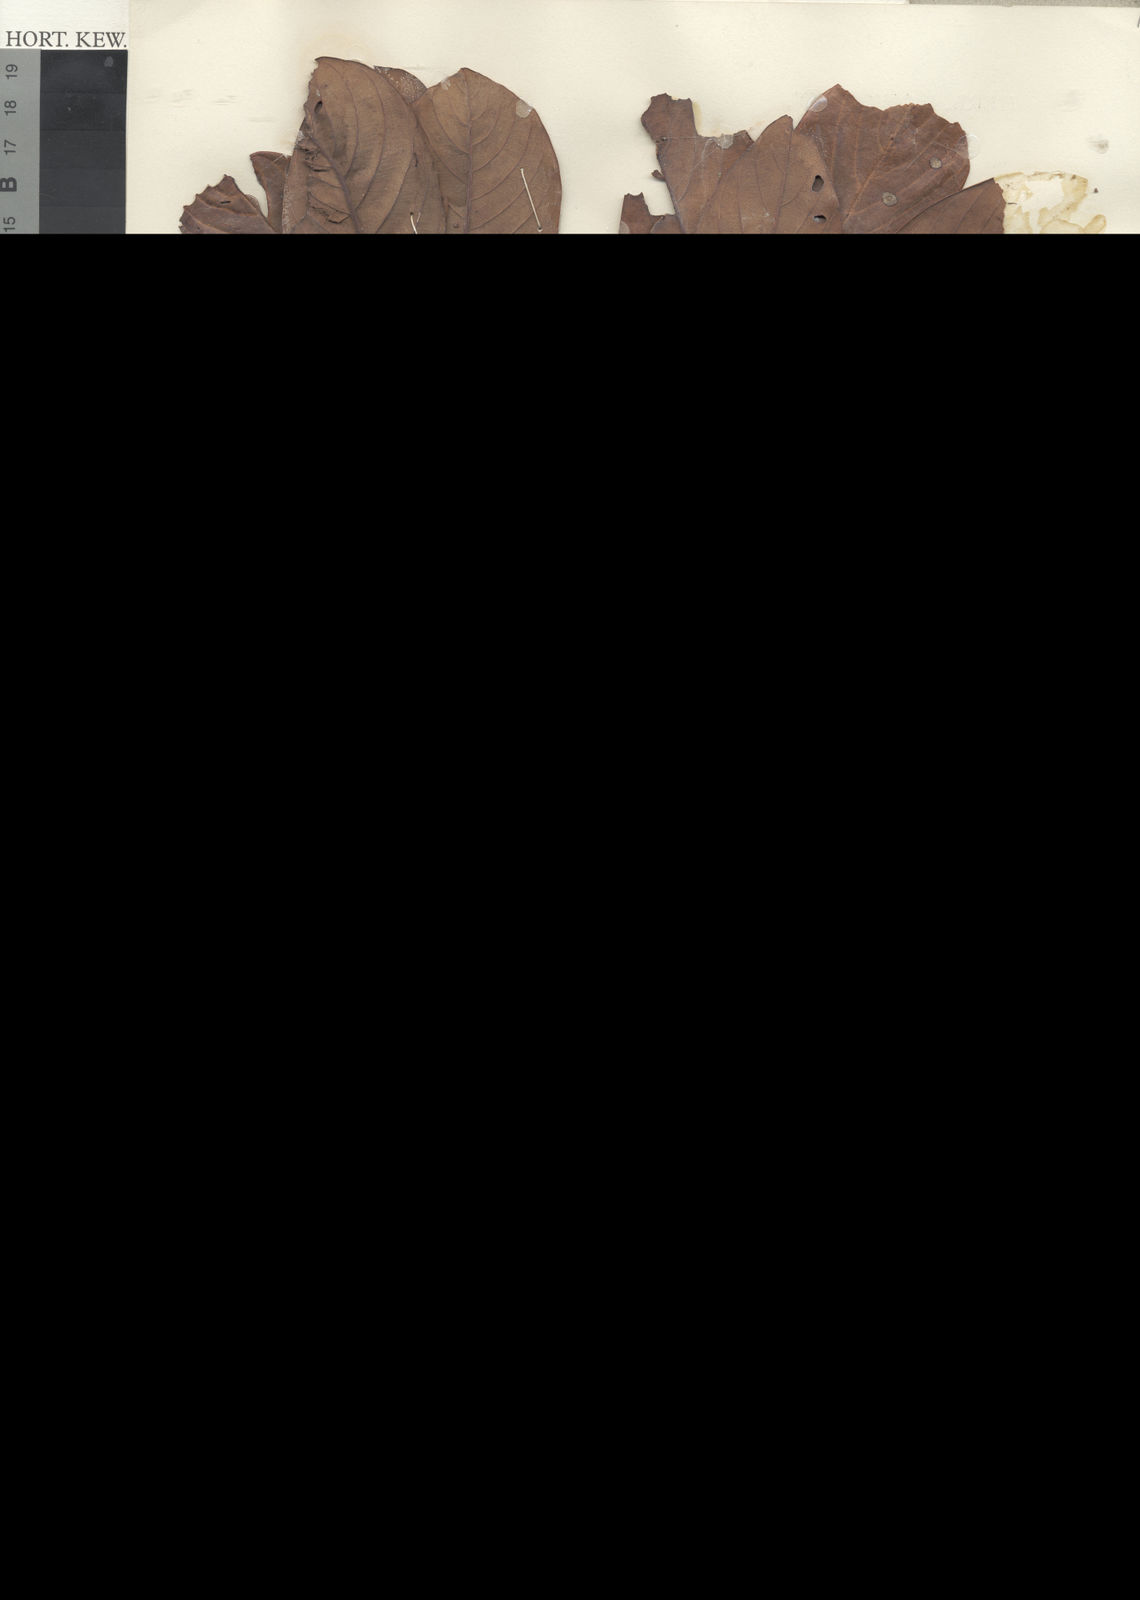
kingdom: Plantae
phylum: Tracheophyta
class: Magnoliopsida
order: Fagales
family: Fagaceae
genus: Quercus
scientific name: Quercus pseudoverticillata
